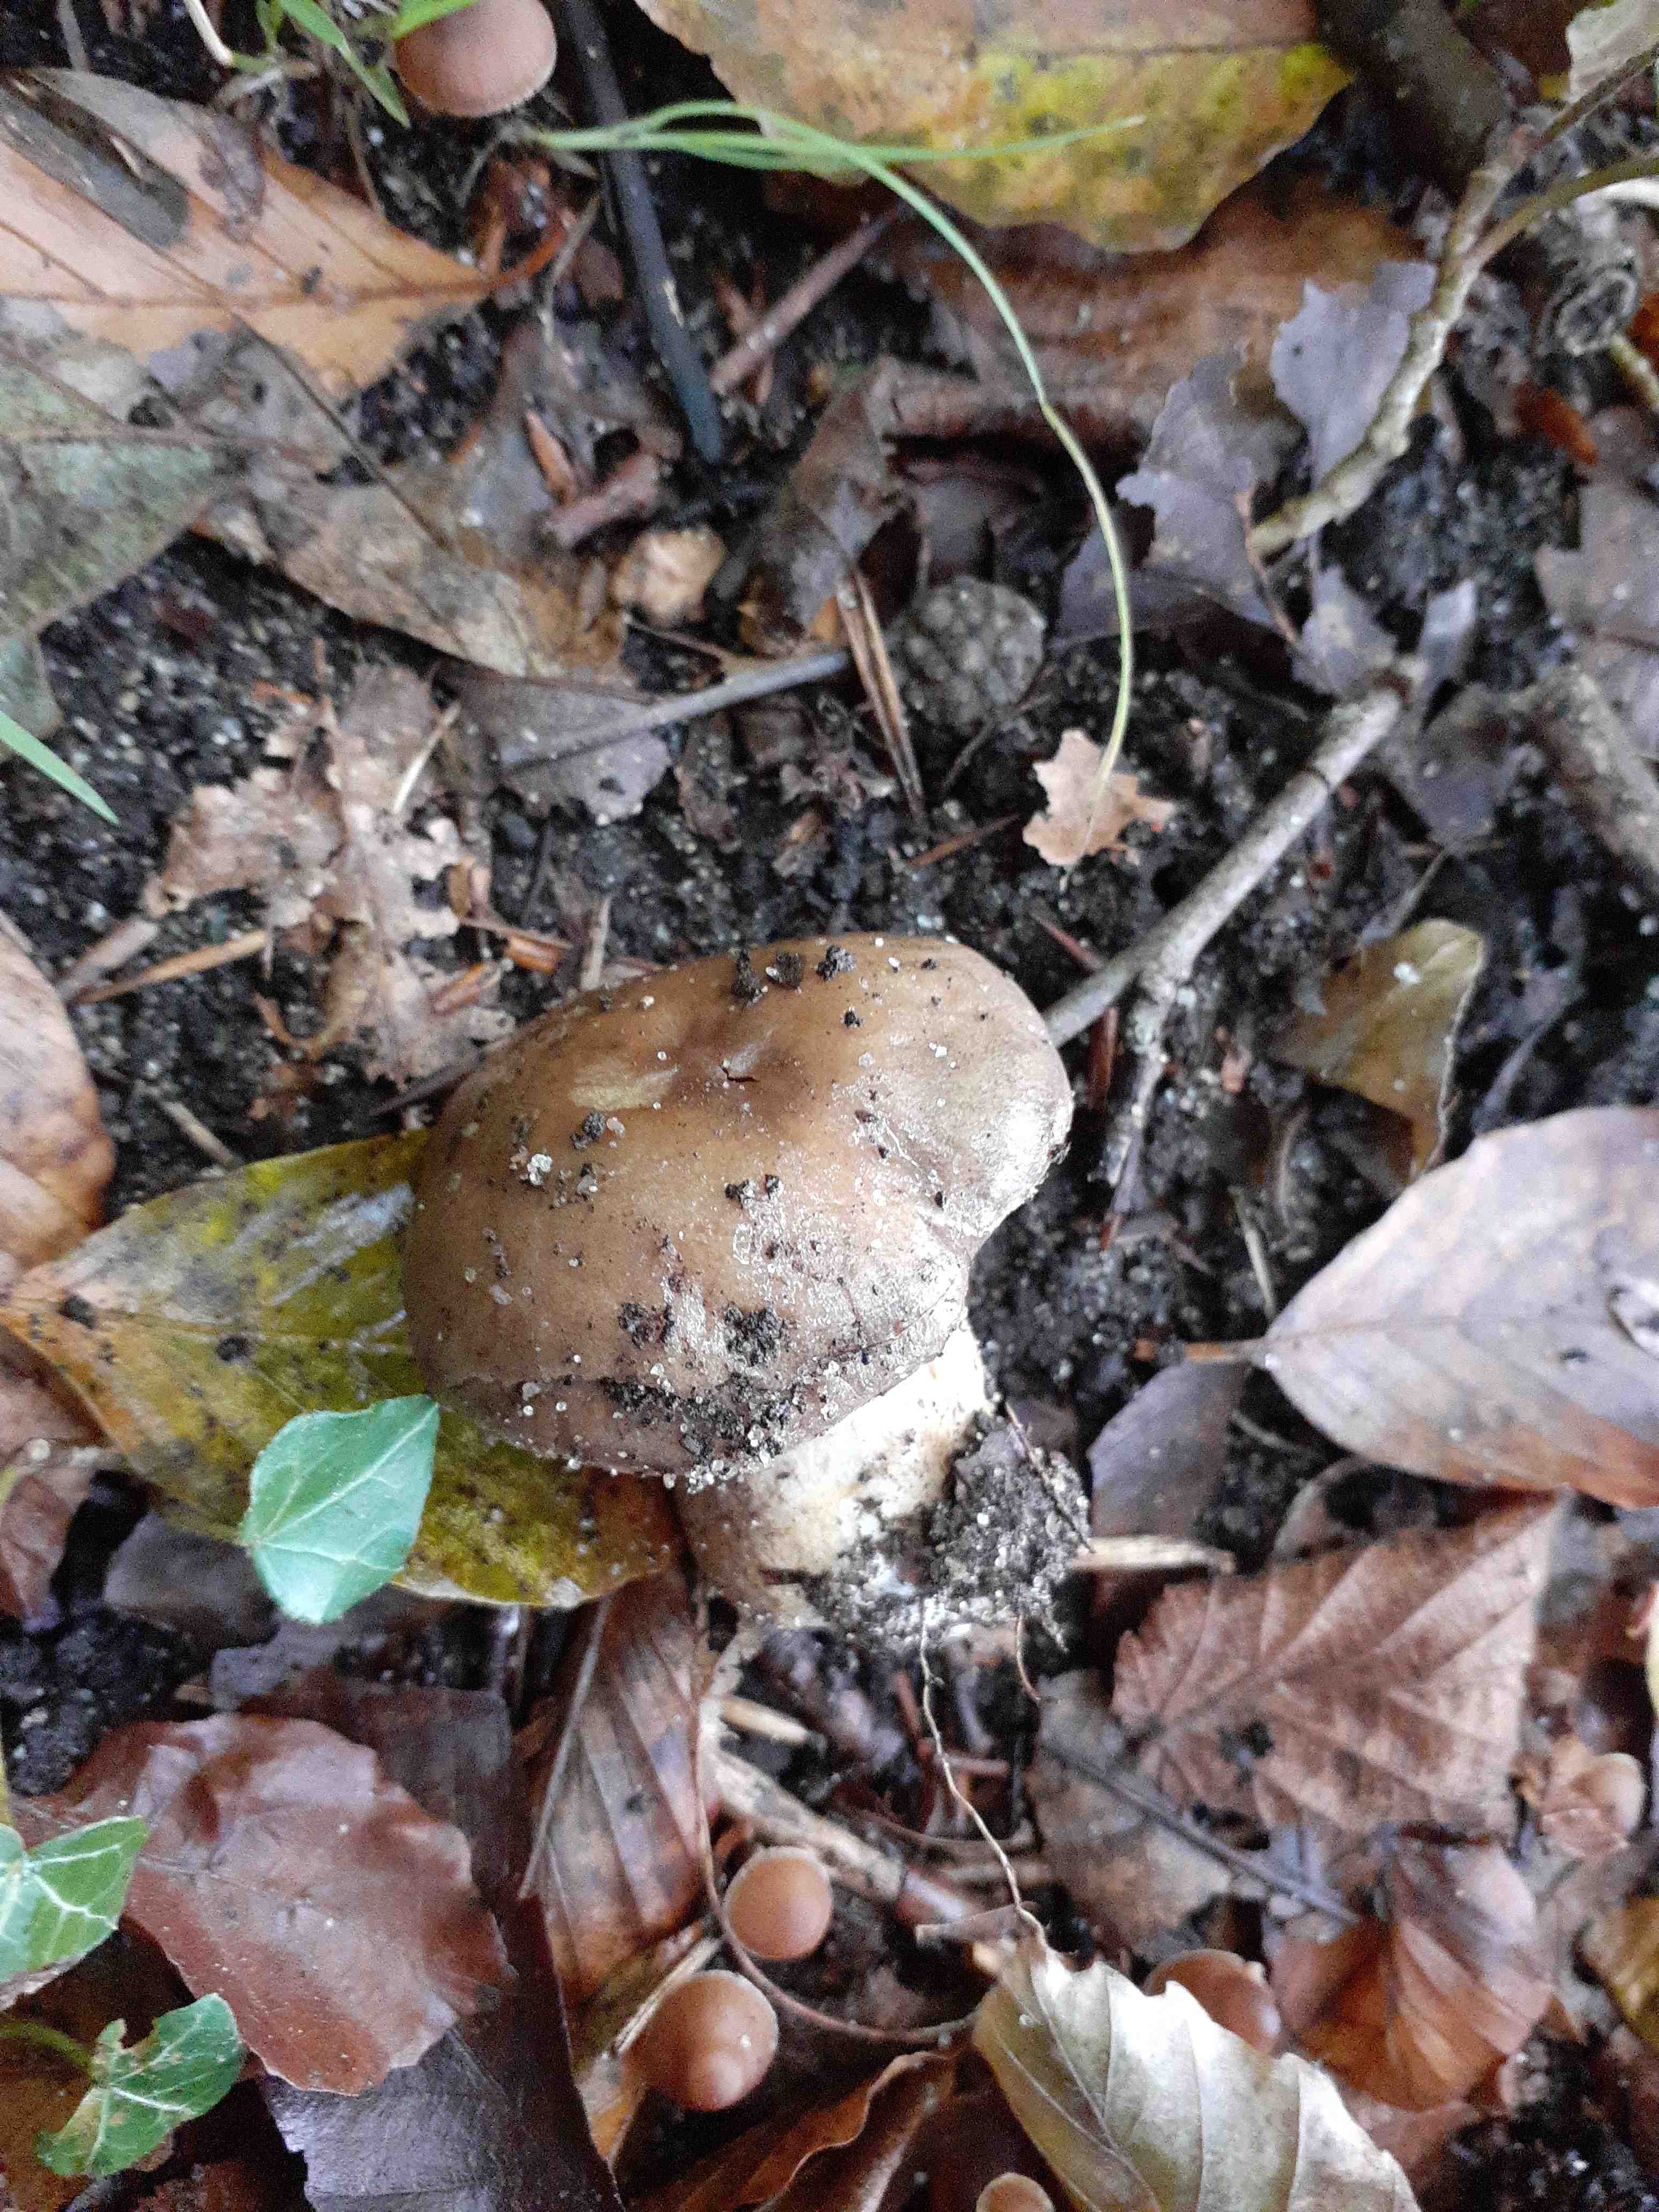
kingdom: Fungi
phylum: Basidiomycota
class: Agaricomycetes
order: Agaricales
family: Cortinariaceae
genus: Cortinarius
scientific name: Cortinarius
